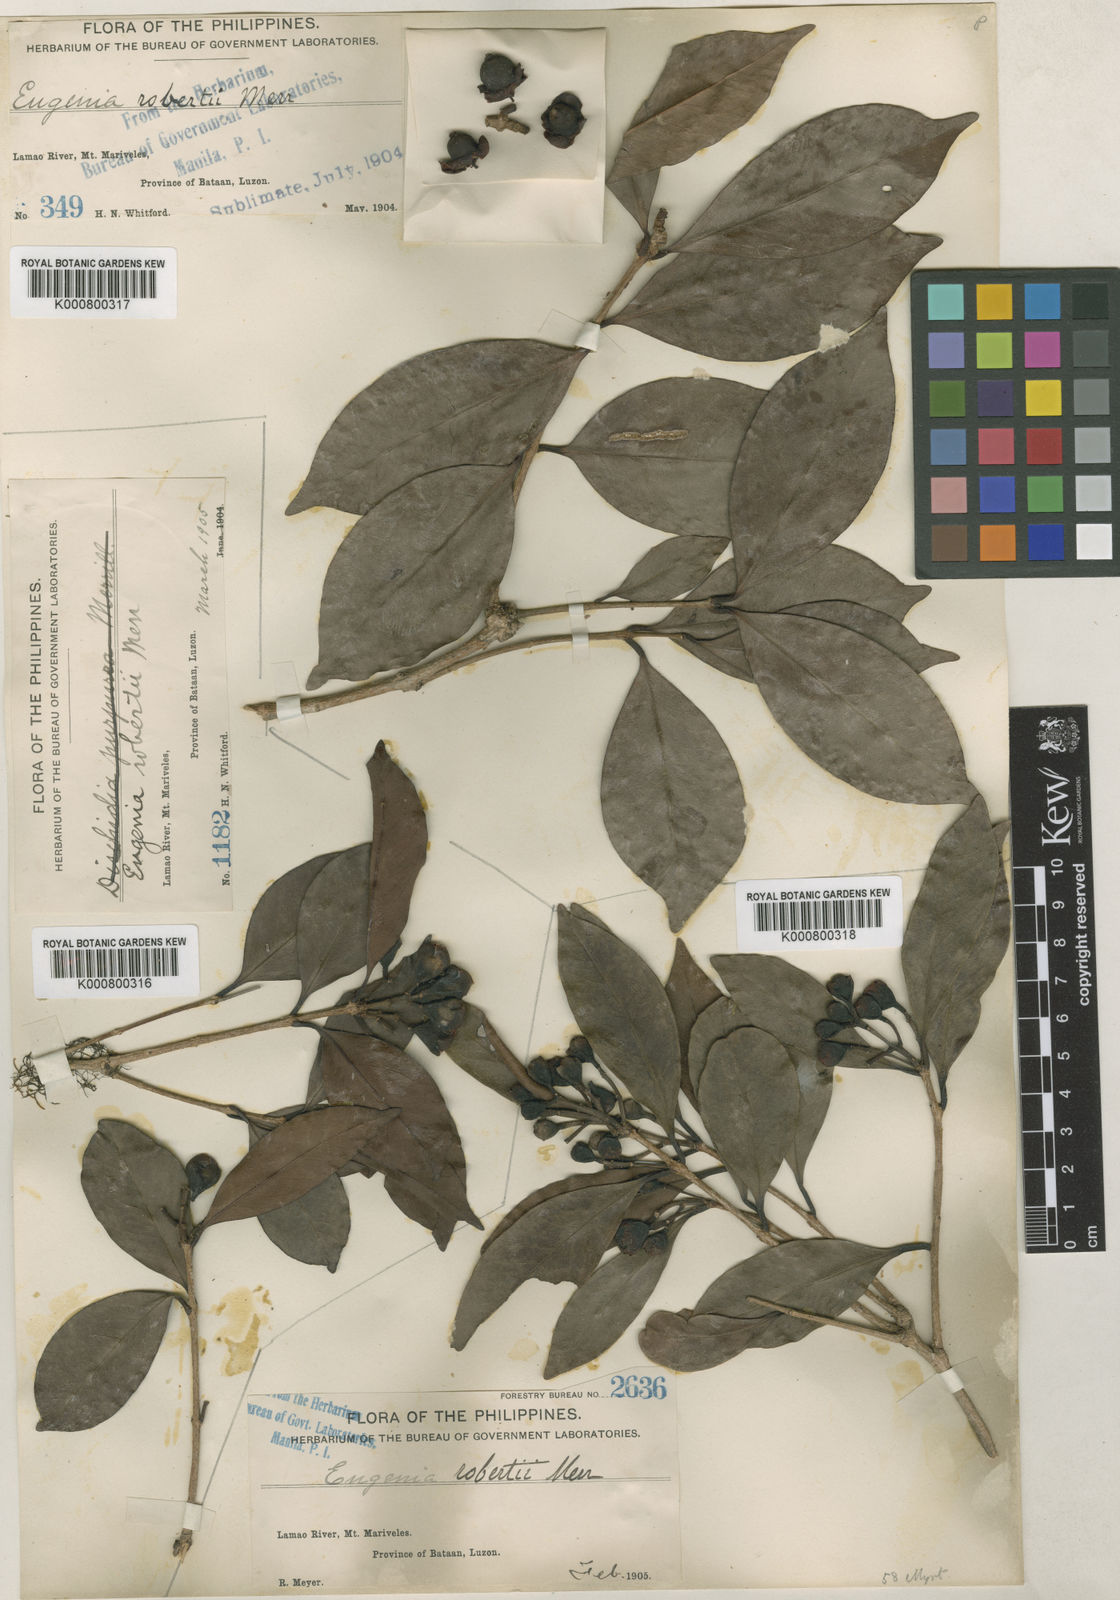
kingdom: Plantae
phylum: Tracheophyta
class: Magnoliopsida
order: Myrtales
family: Myrtaceae
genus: Syzygium
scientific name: Syzygium robertii
